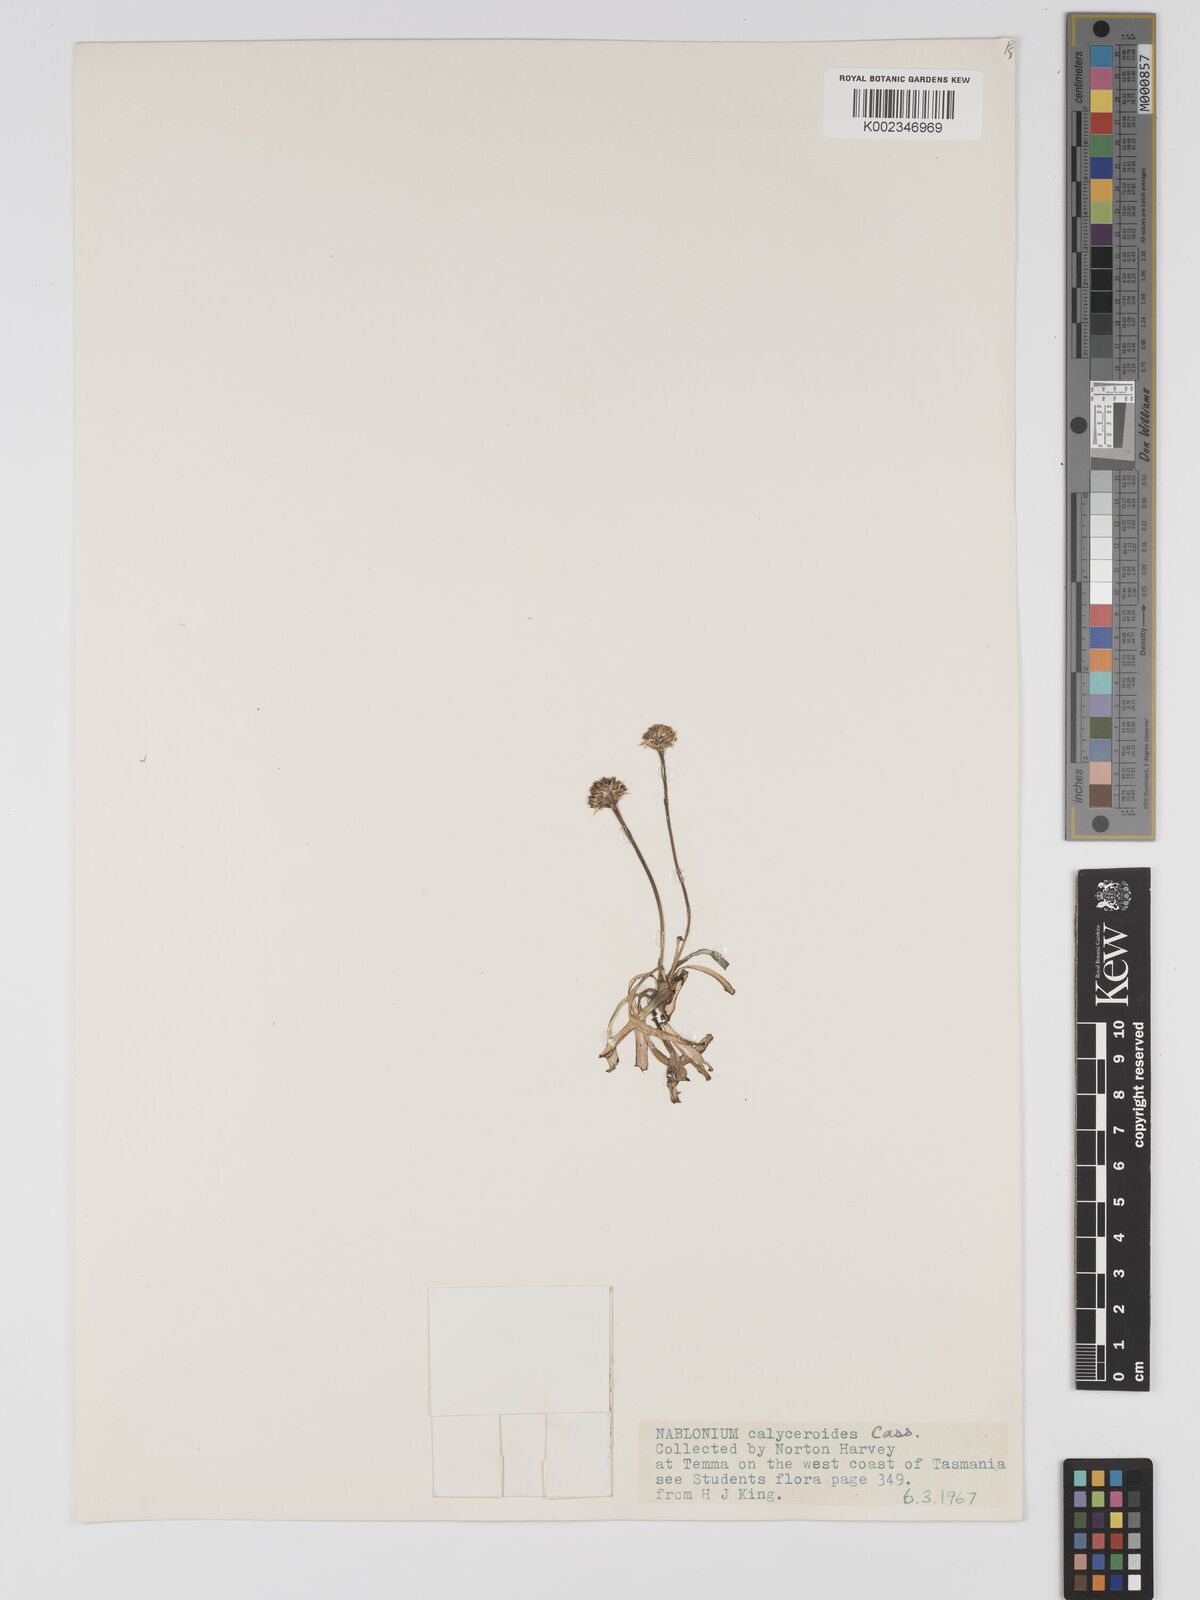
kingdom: Plantae
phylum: Tracheophyta
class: Magnoliopsida
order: Asterales
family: Asteraceae
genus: Ammobium
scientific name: Ammobium calyceroides
